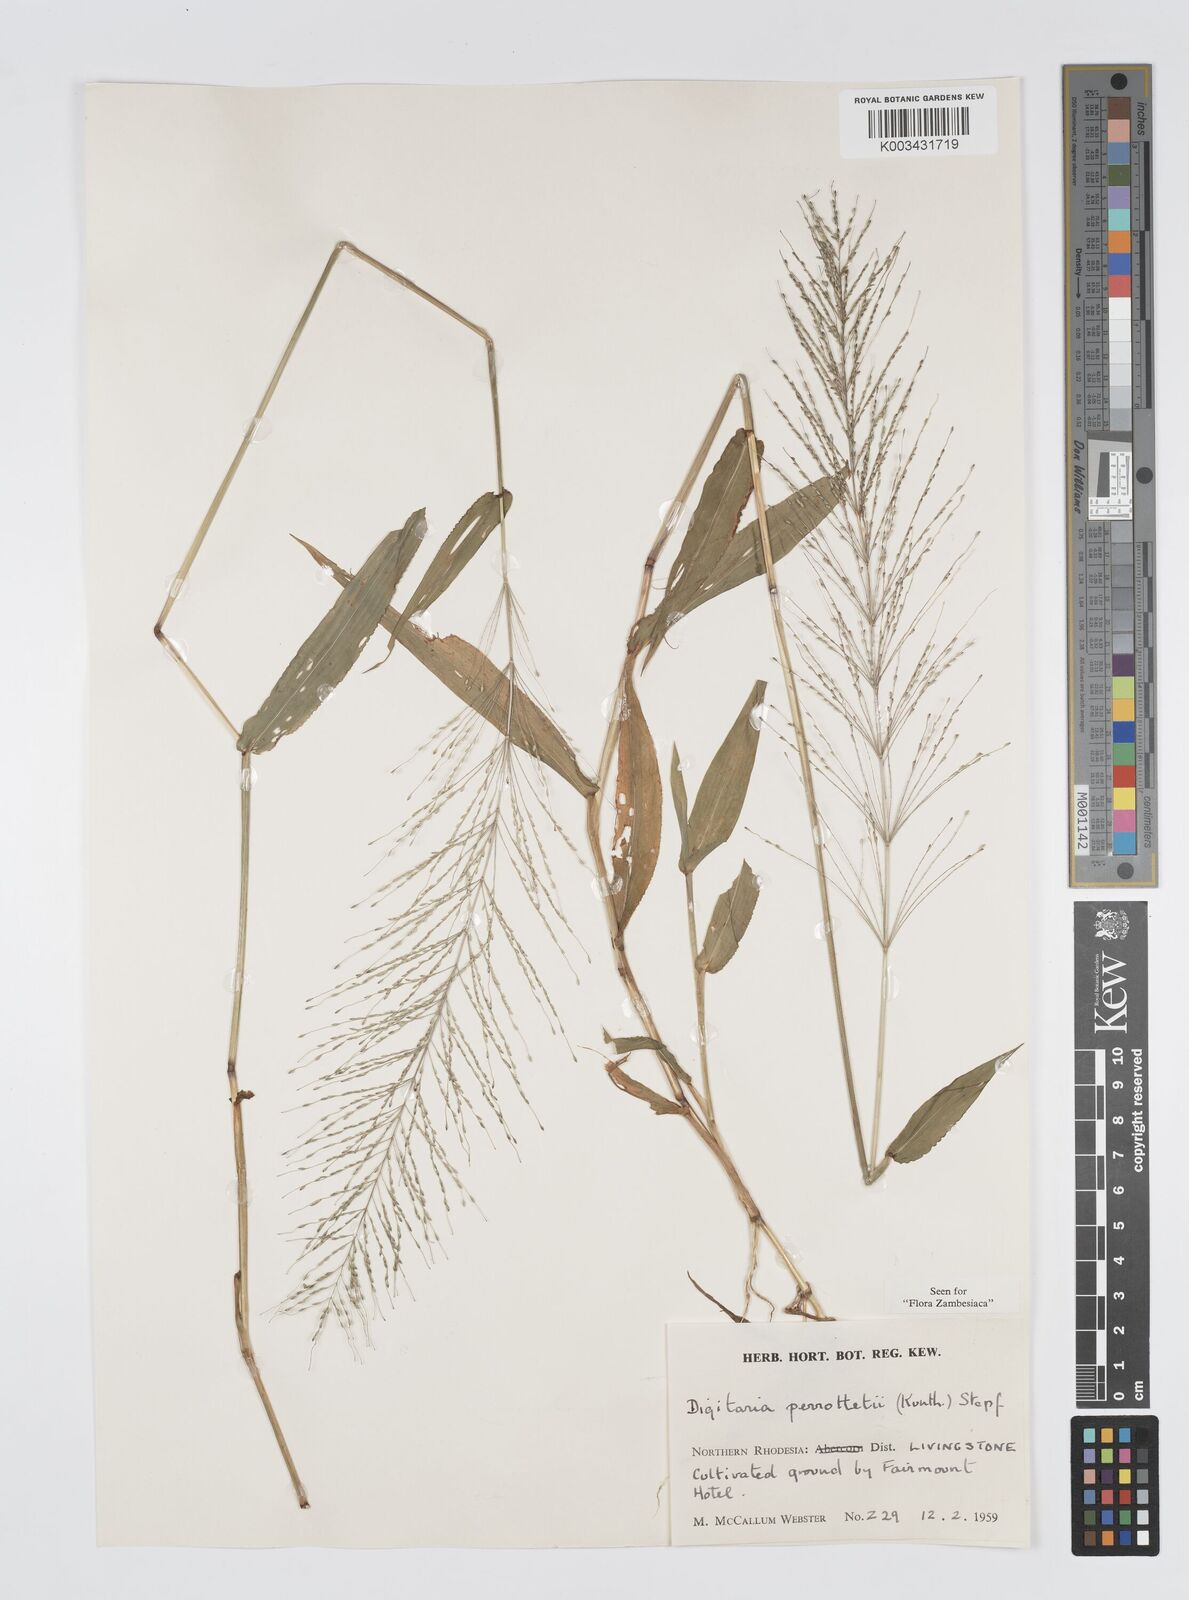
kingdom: Plantae
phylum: Tracheophyta
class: Liliopsida
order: Poales
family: Poaceae
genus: Digitaria
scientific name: Digitaria perrottetii
